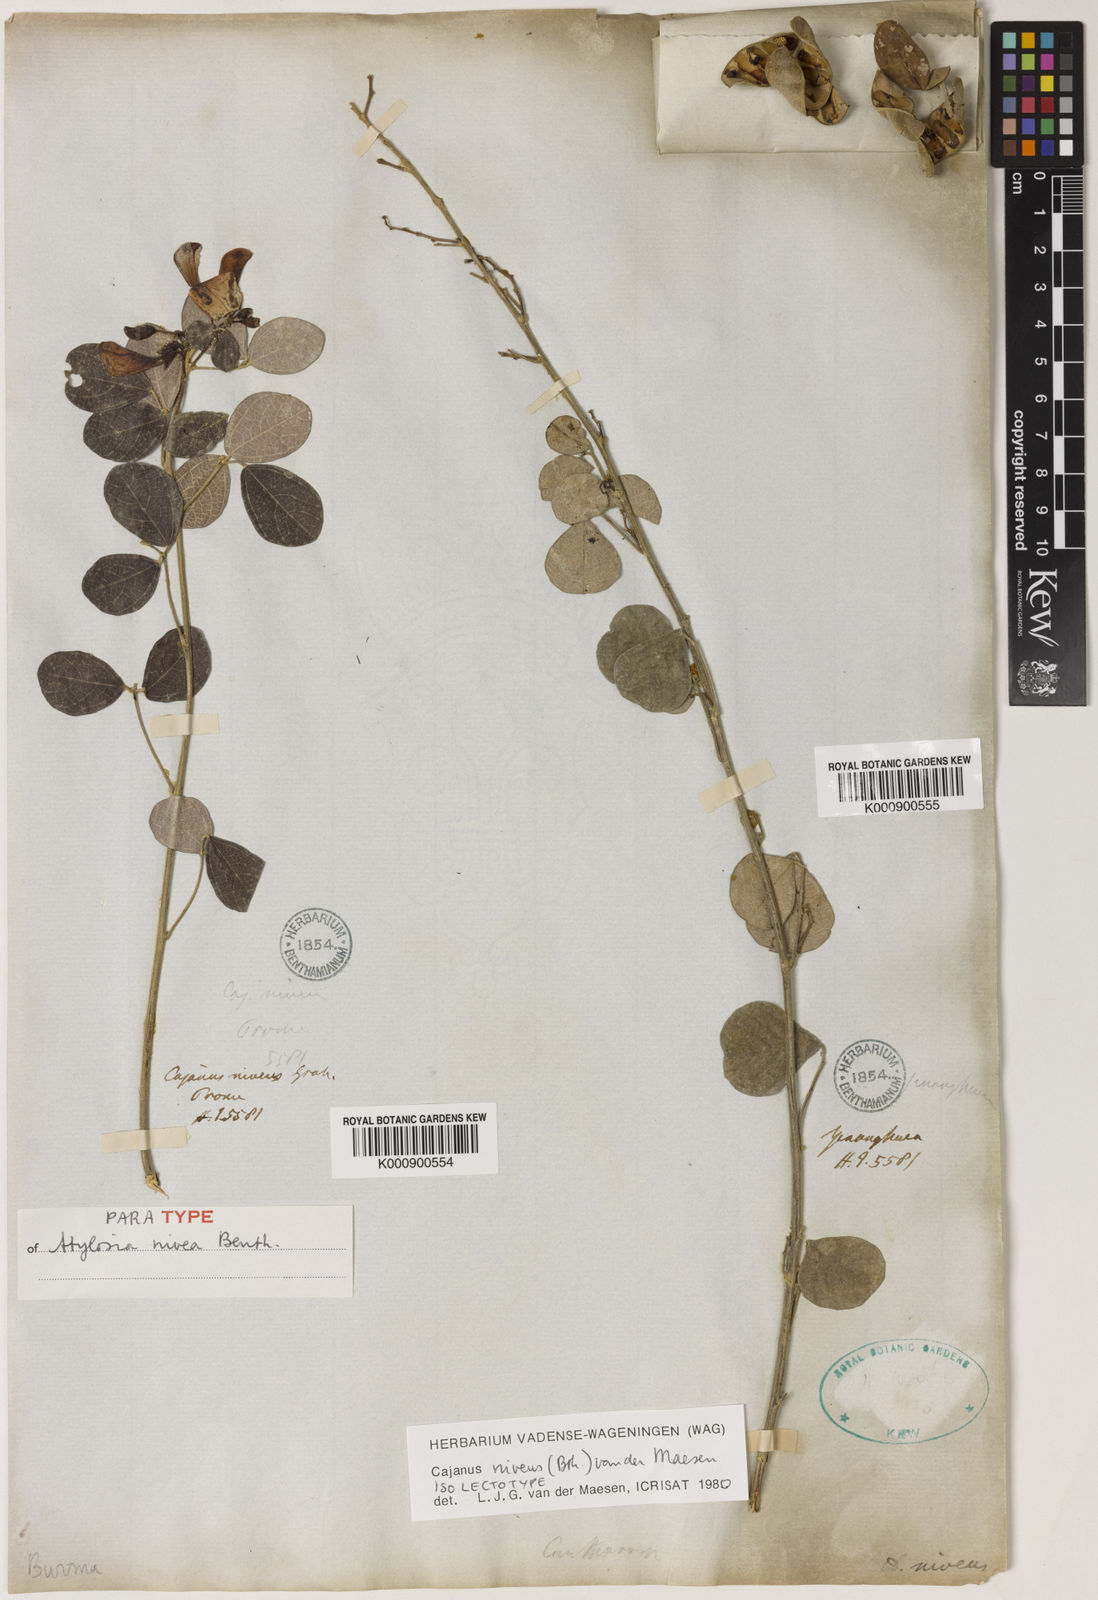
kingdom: Plantae
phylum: Tracheophyta
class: Magnoliopsida
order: Fabales
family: Fabaceae
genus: Cajanus
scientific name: Cajanus niveus
